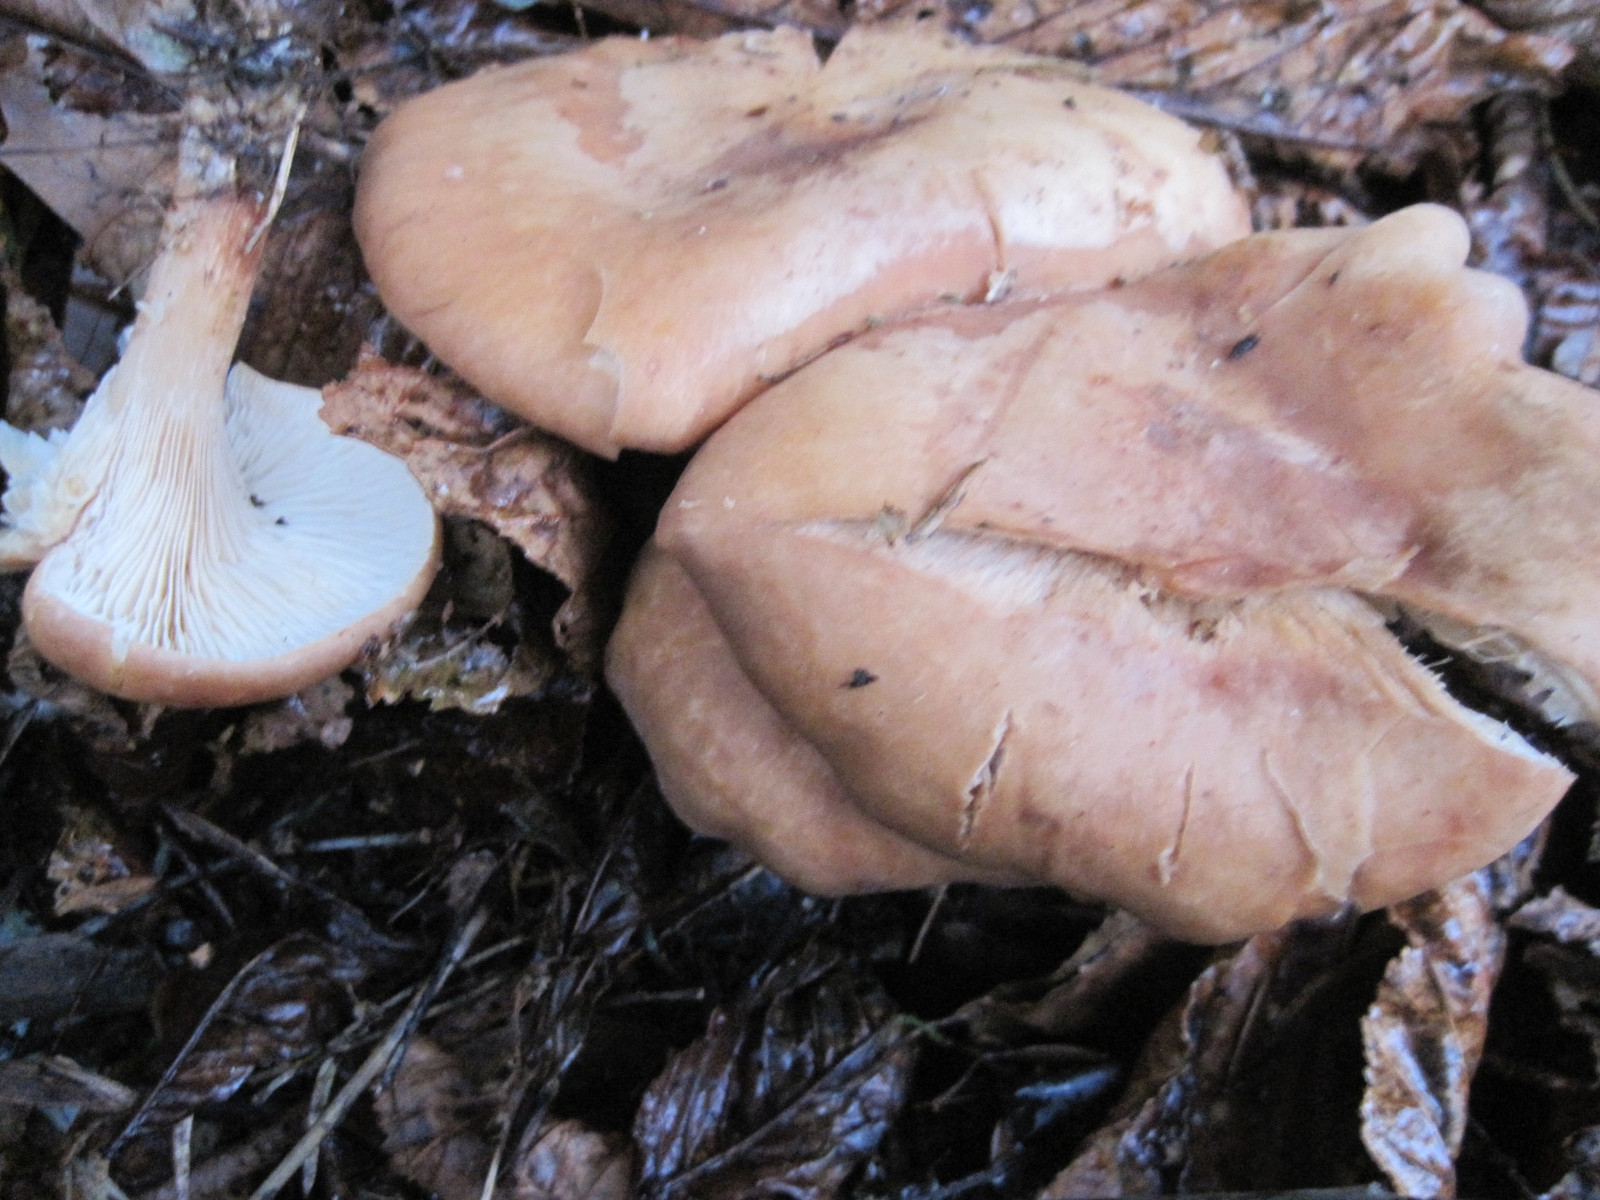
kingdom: Fungi
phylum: Basidiomycota
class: Agaricomycetes
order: Agaricales
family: Tricholomataceae
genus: Paralepista
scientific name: Paralepista flaccida
